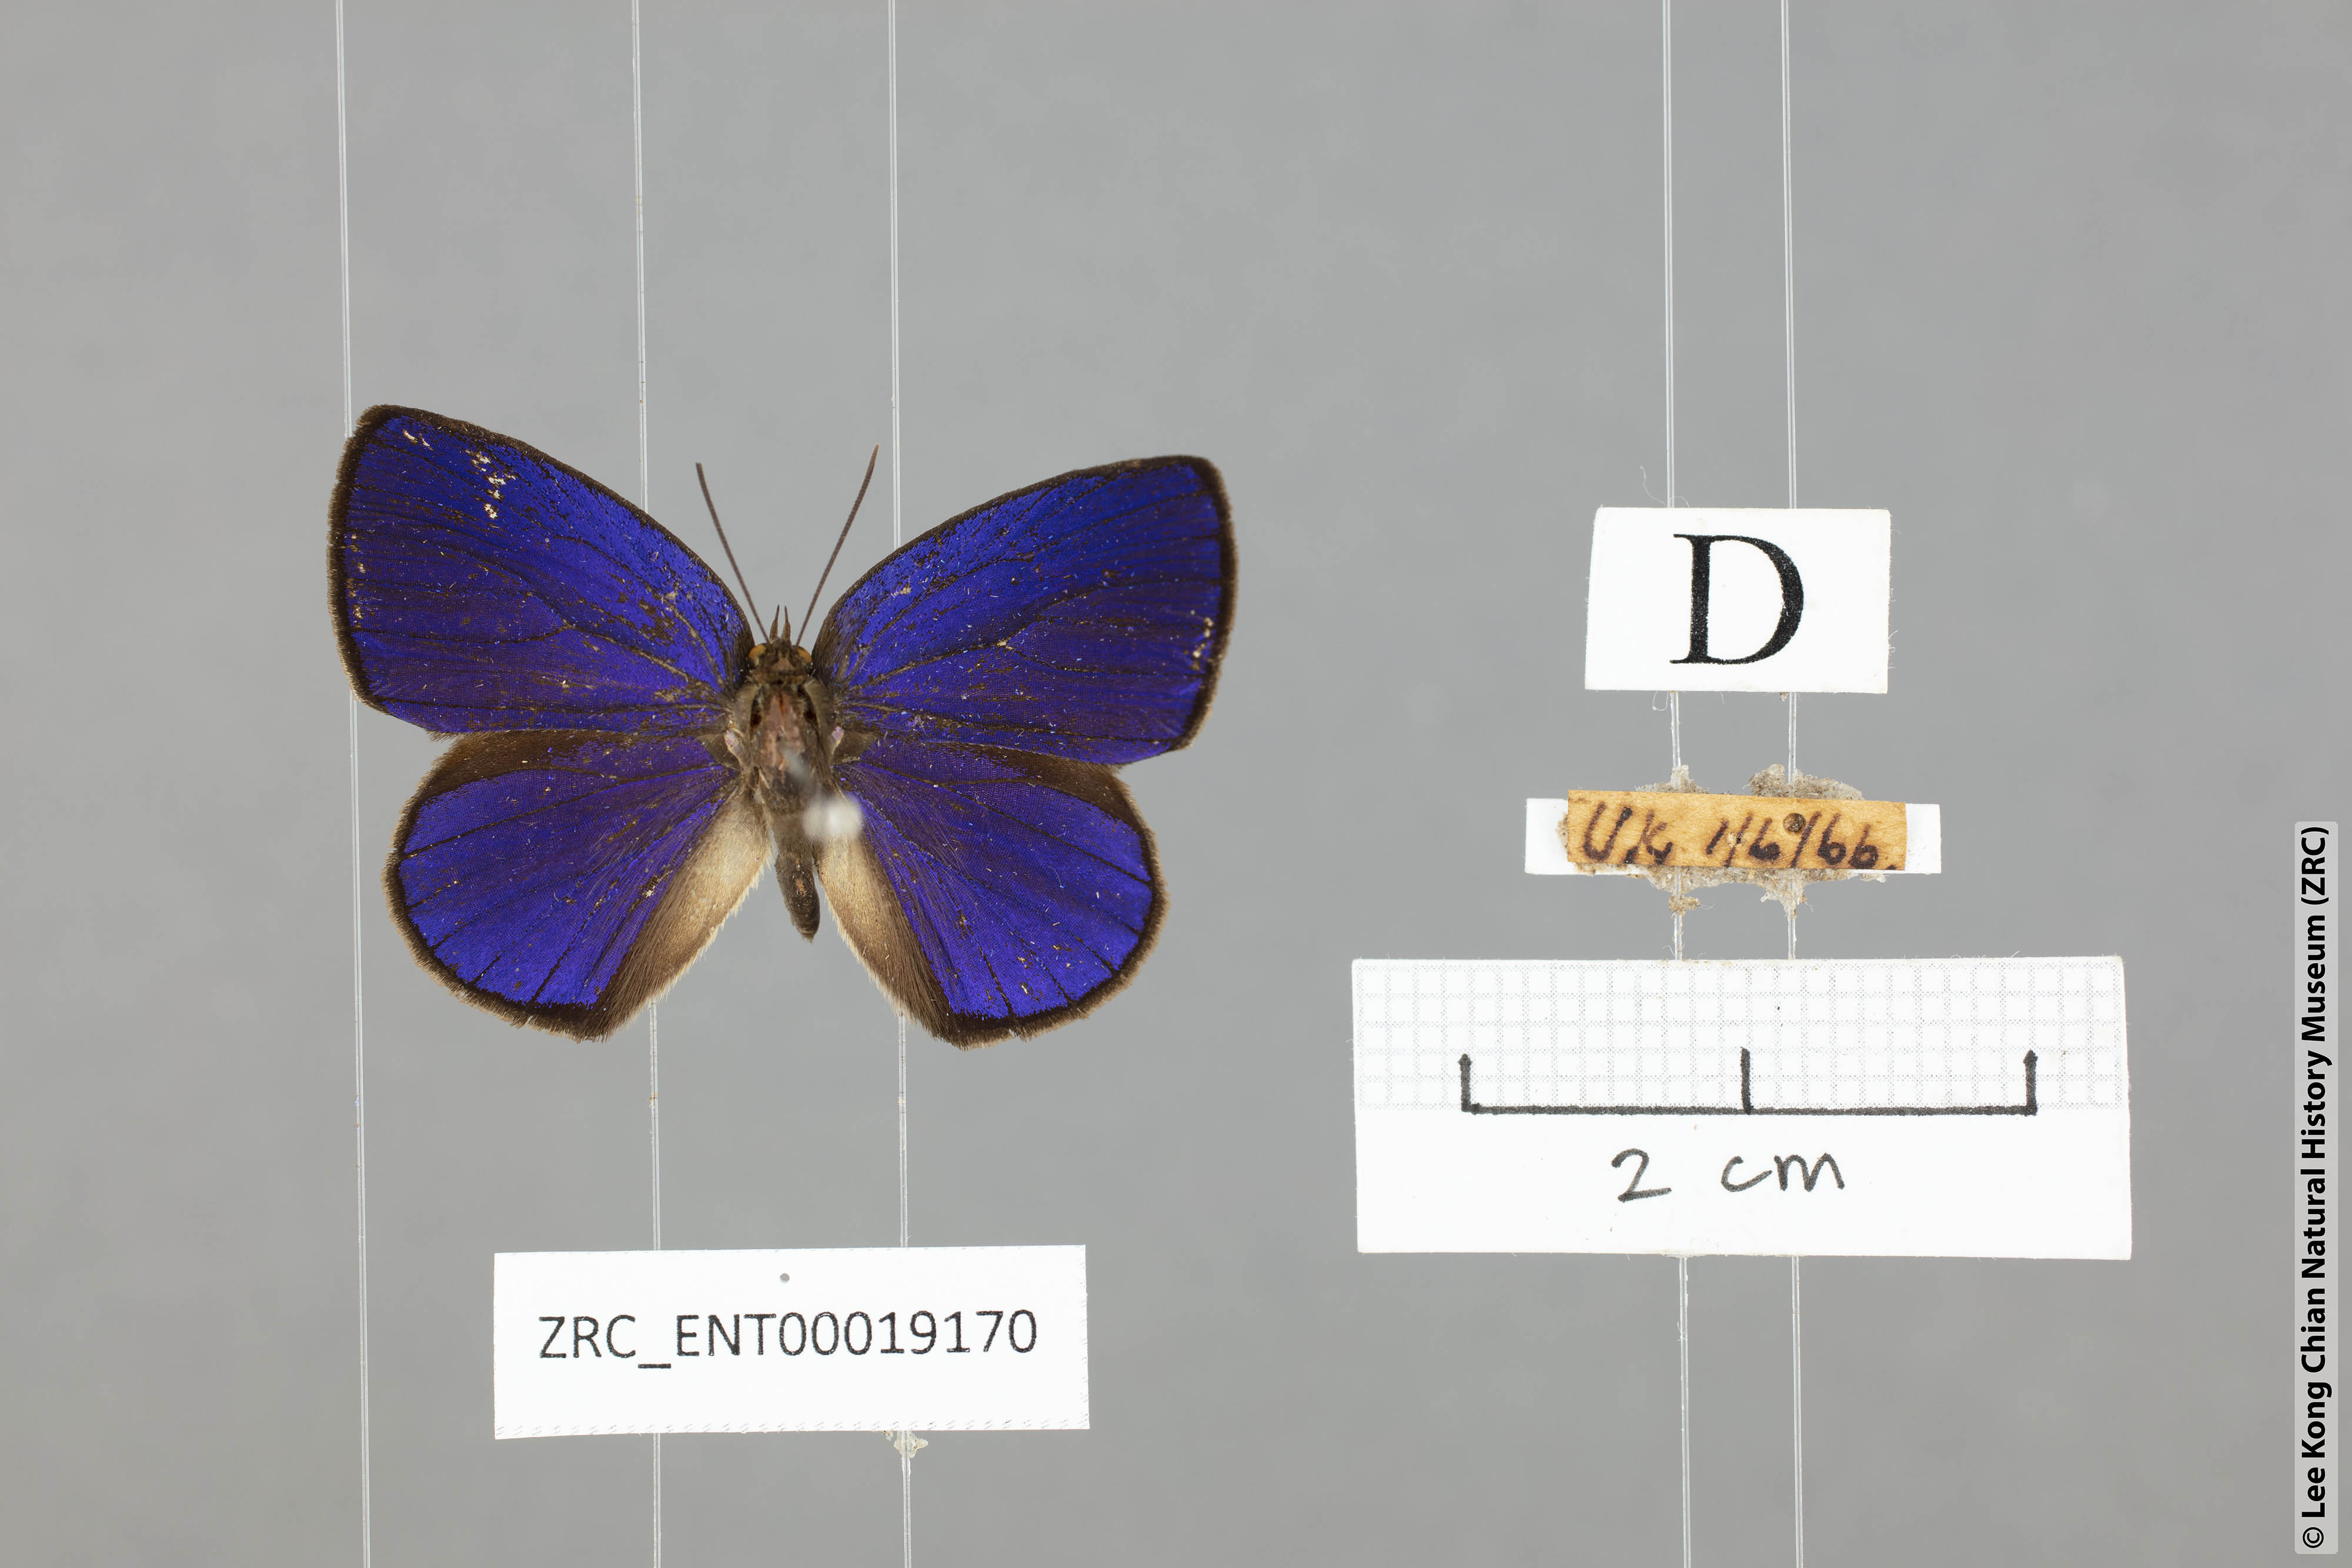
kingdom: Animalia
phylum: Arthropoda
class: Insecta
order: Lepidoptera
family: Lycaenidae
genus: Arhopala
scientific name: Arhopala antimuta
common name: Small tailless oakblue
